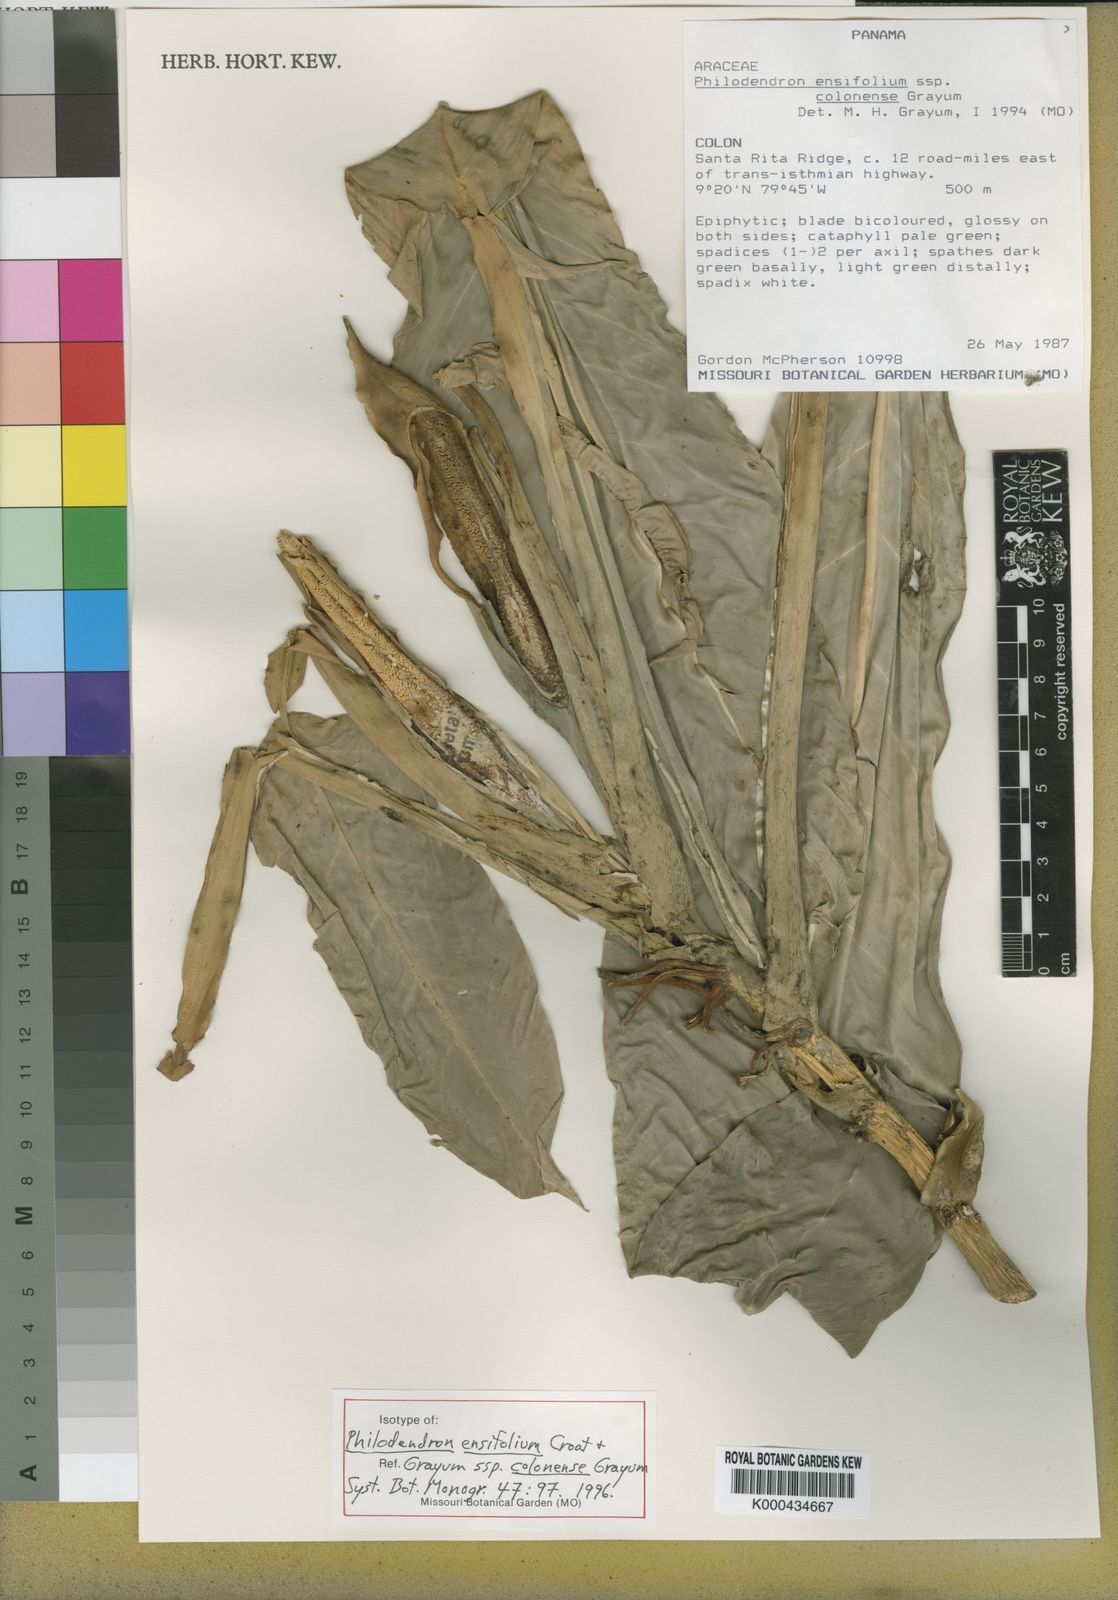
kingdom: Plantae
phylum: Tracheophyta
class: Liliopsida
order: Alismatales
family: Araceae
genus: Philodendron
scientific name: Philodendron ensifolium
